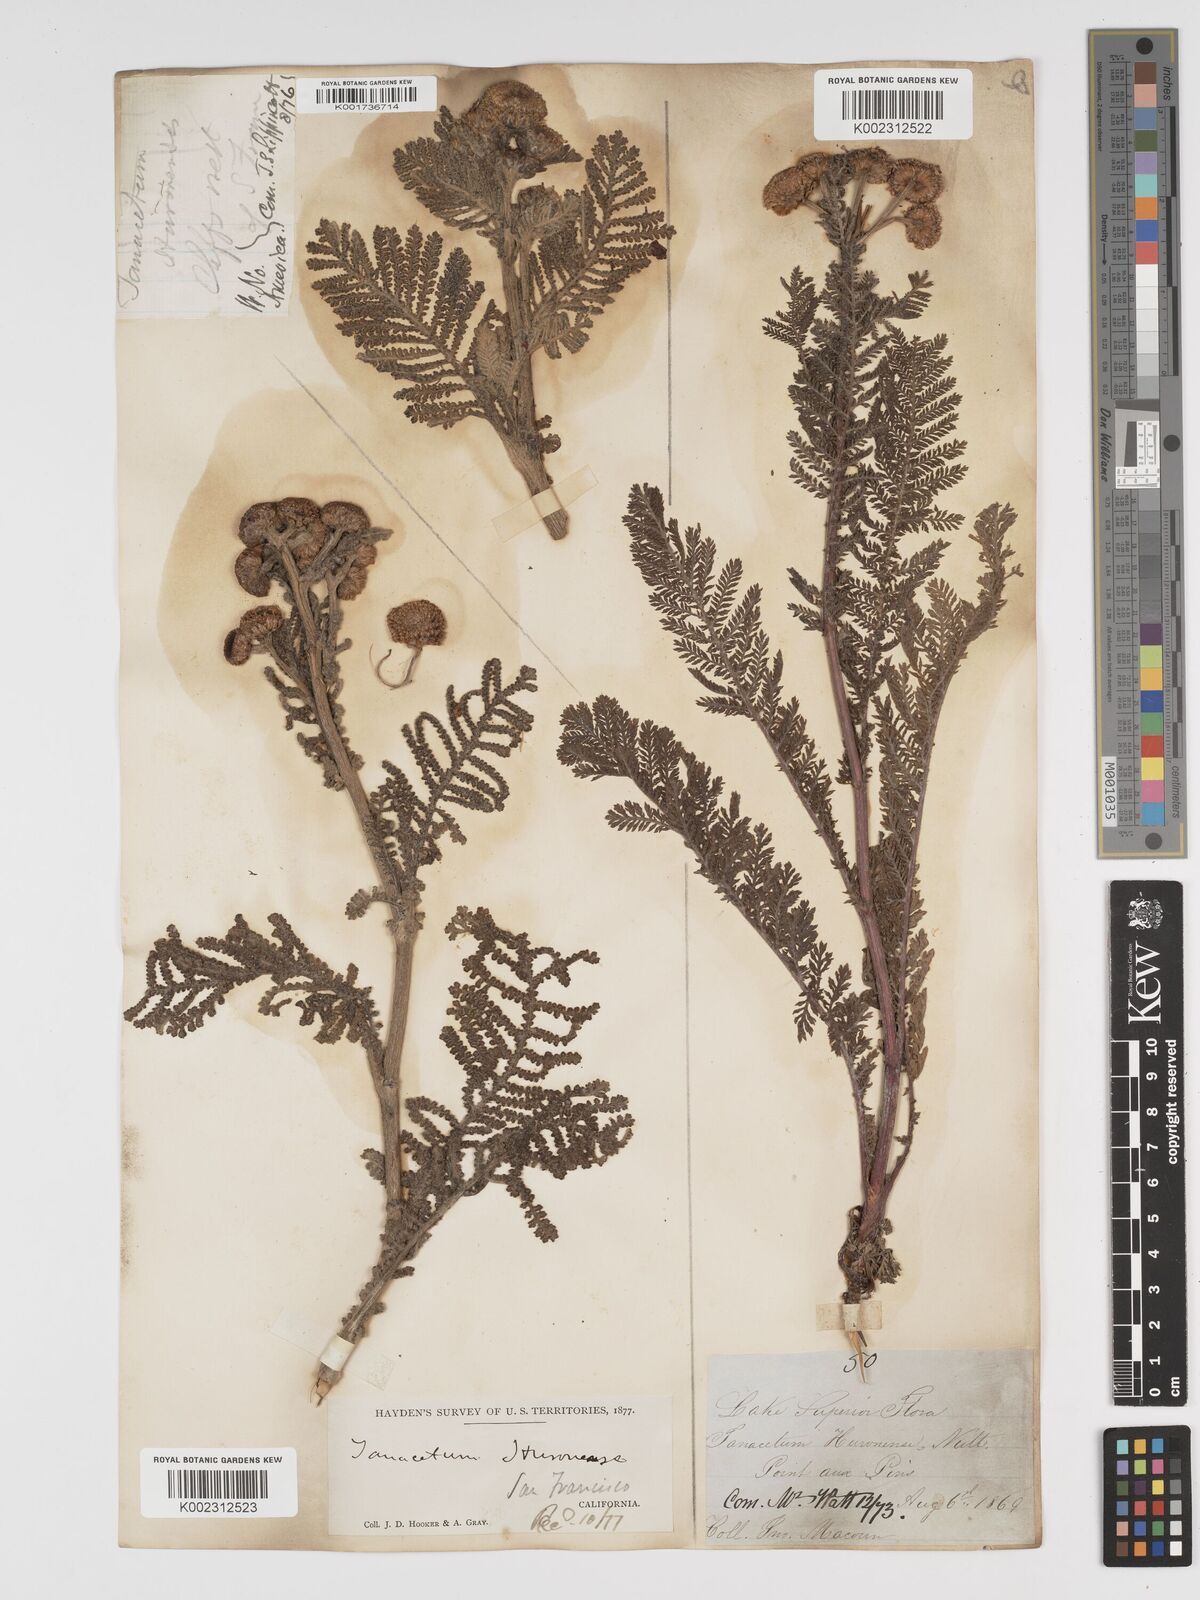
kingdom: Plantae
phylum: Tracheophyta
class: Magnoliopsida
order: Asterales
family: Asteraceae
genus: Tanacetum
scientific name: Tanacetum bipinnatum
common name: Dwarf tansy
